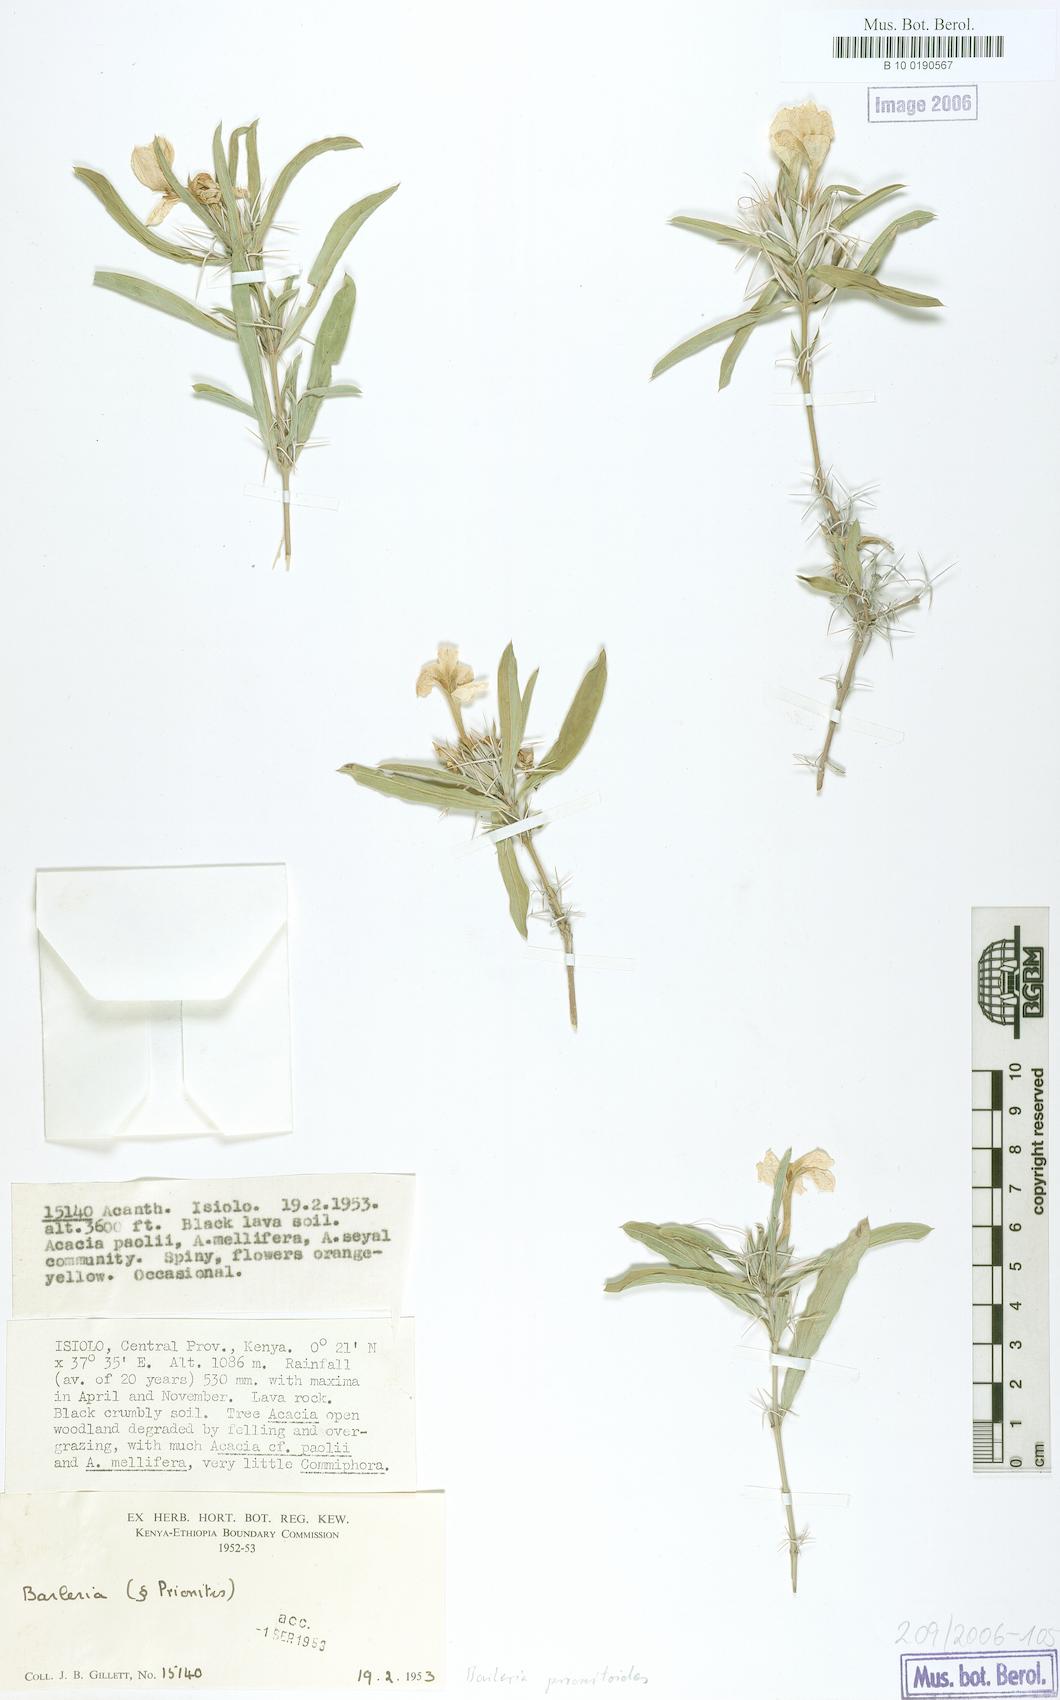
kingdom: Plantae
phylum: Tracheophyta
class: Magnoliopsida
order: Lamiales
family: Acanthaceae
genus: Barleria
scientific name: Barleria prionitis
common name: Barleria
